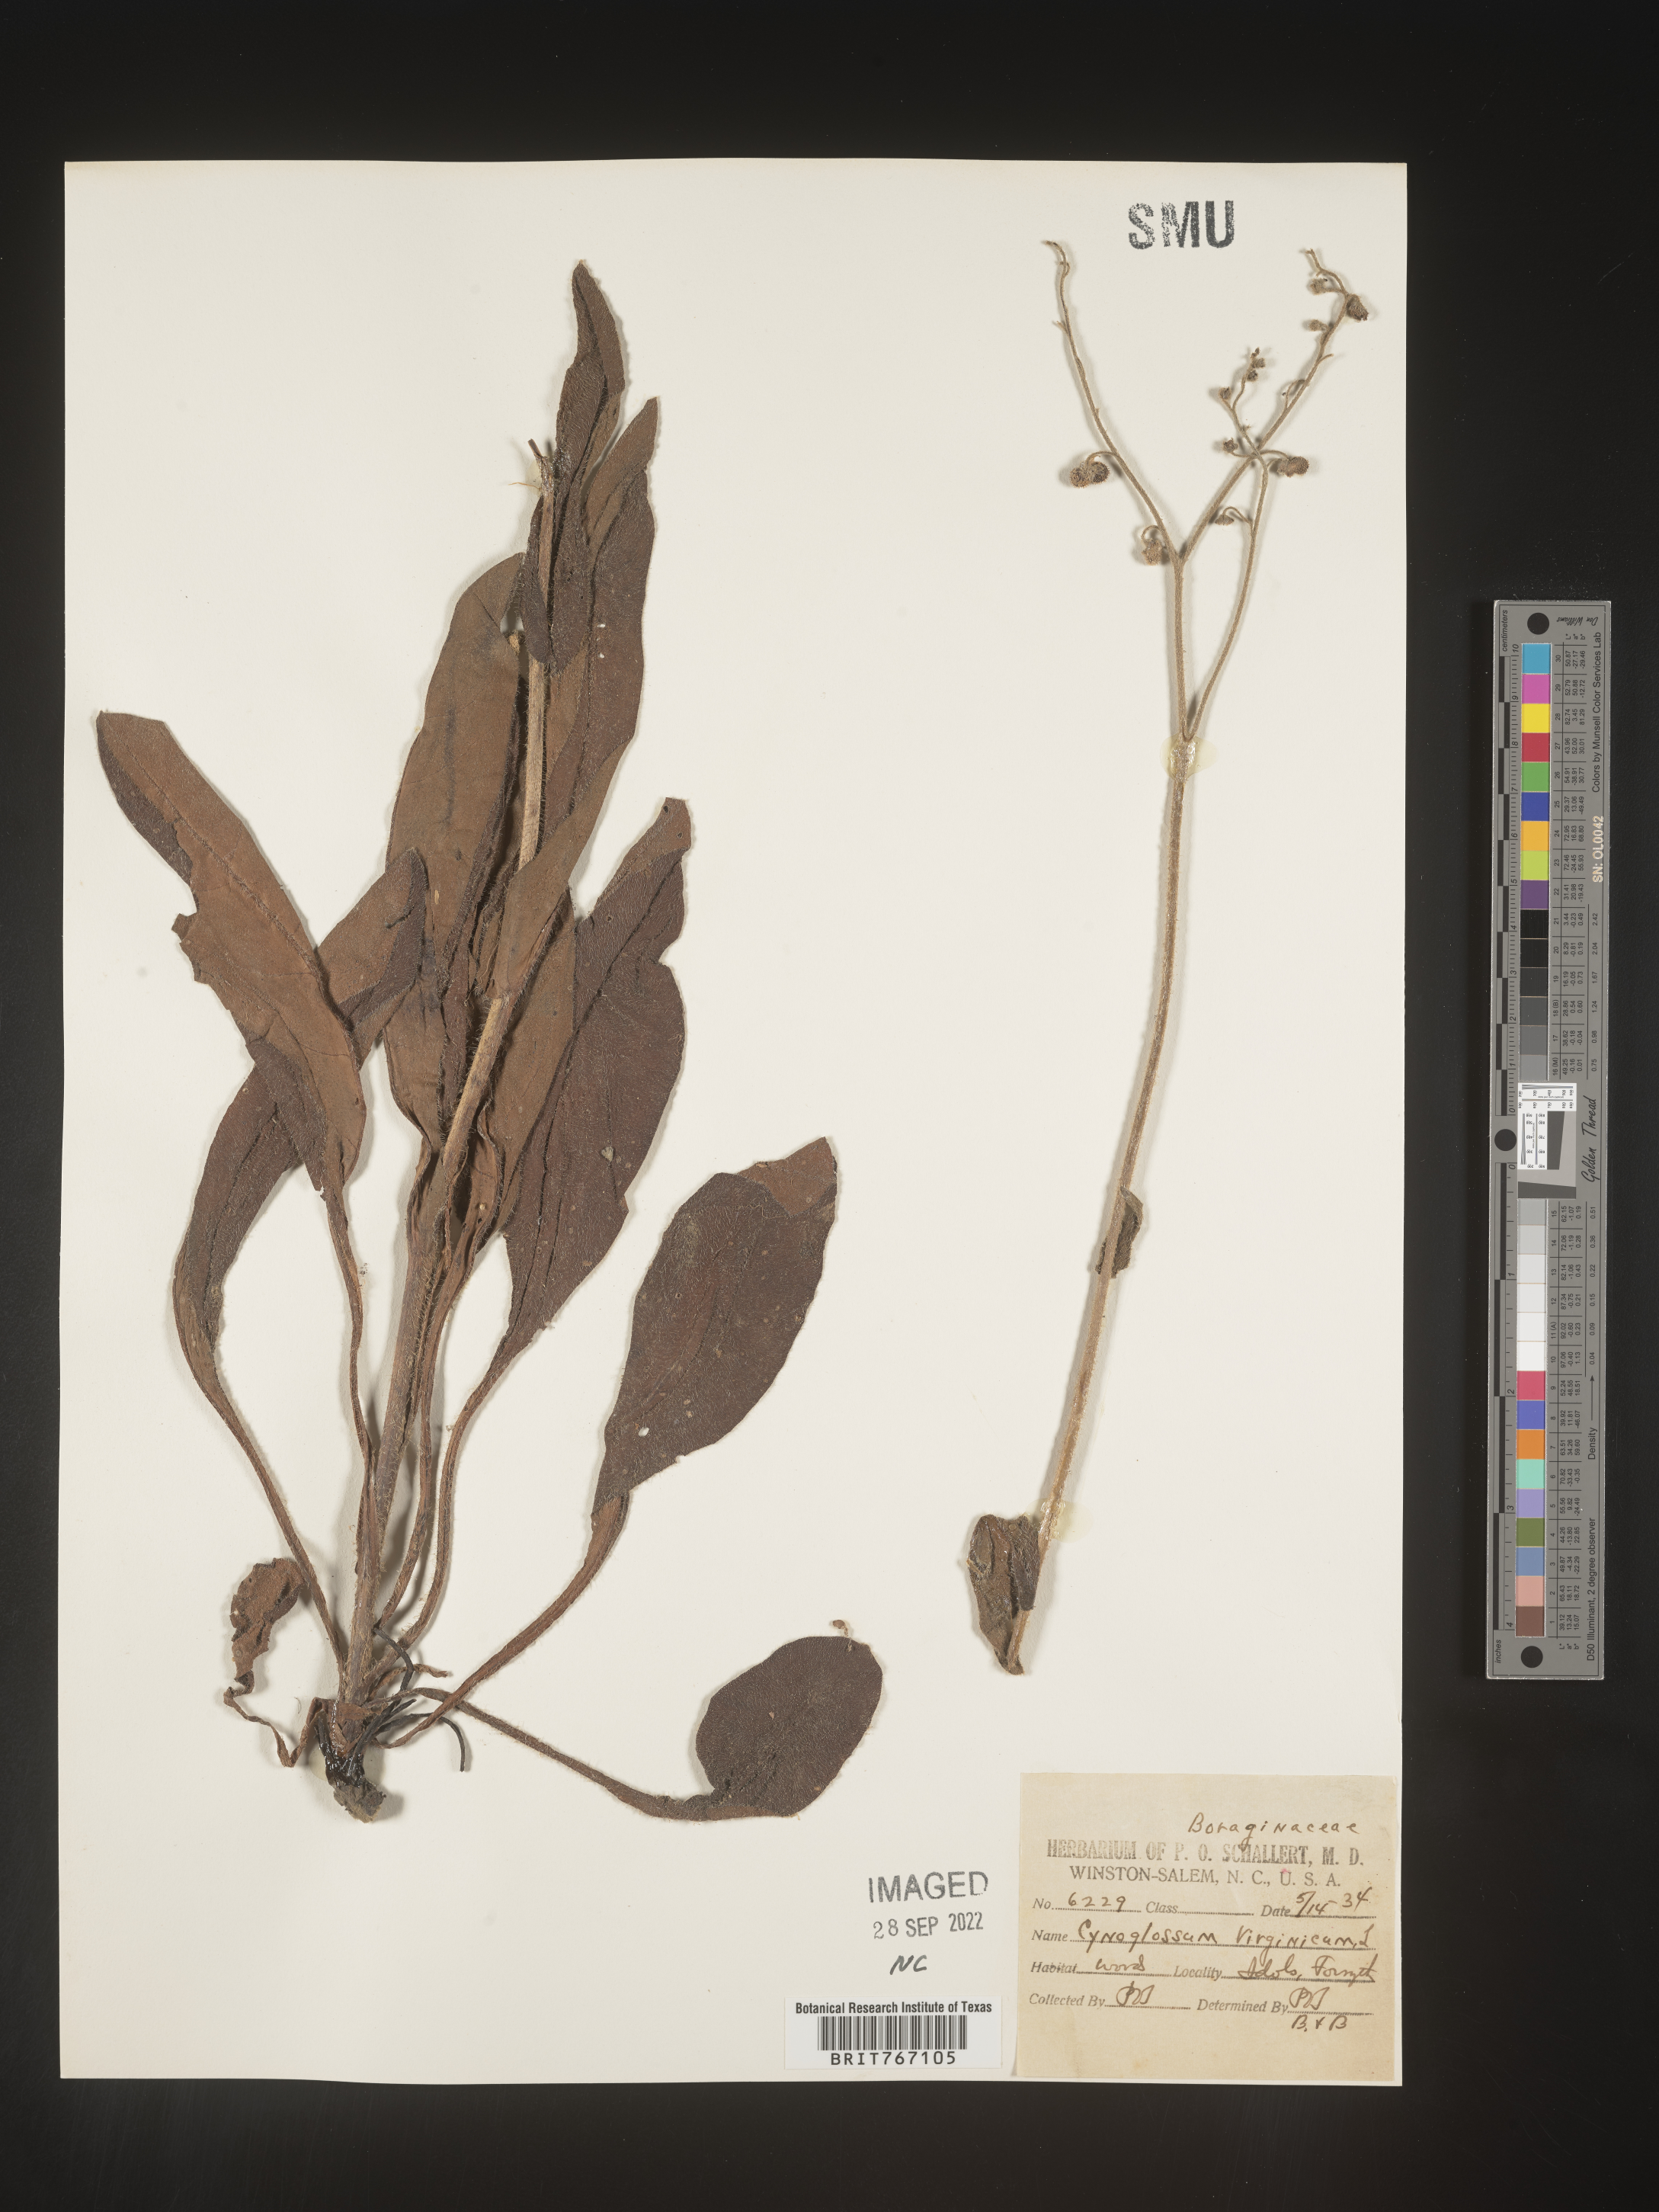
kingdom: Plantae
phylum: Tracheophyta
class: Magnoliopsida
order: Boraginales
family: Boraginaceae
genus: Andersonglossum
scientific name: Andersonglossum virginianum
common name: Wild comfrey
